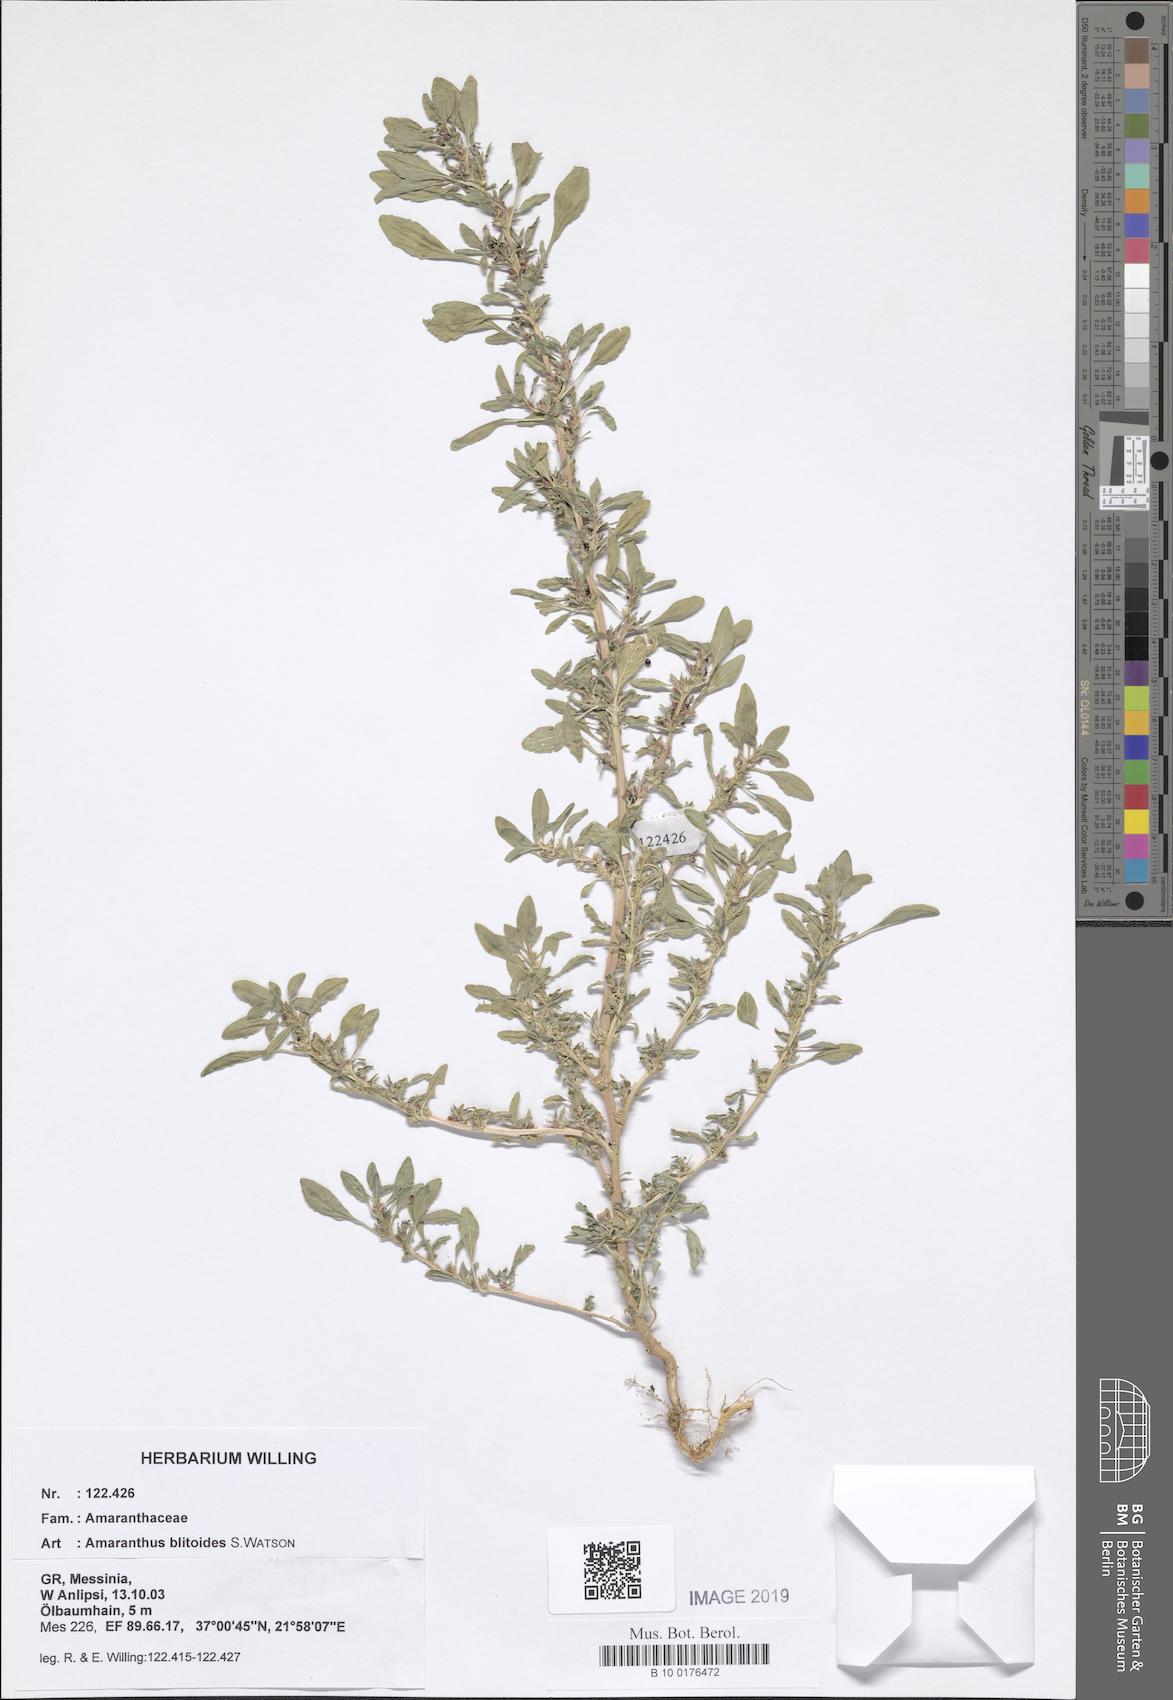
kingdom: Plantae
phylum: Tracheophyta
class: Magnoliopsida
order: Caryophyllales
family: Amaranthaceae
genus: Amaranthus
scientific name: Amaranthus blitoides
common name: Prostrate pigweed
